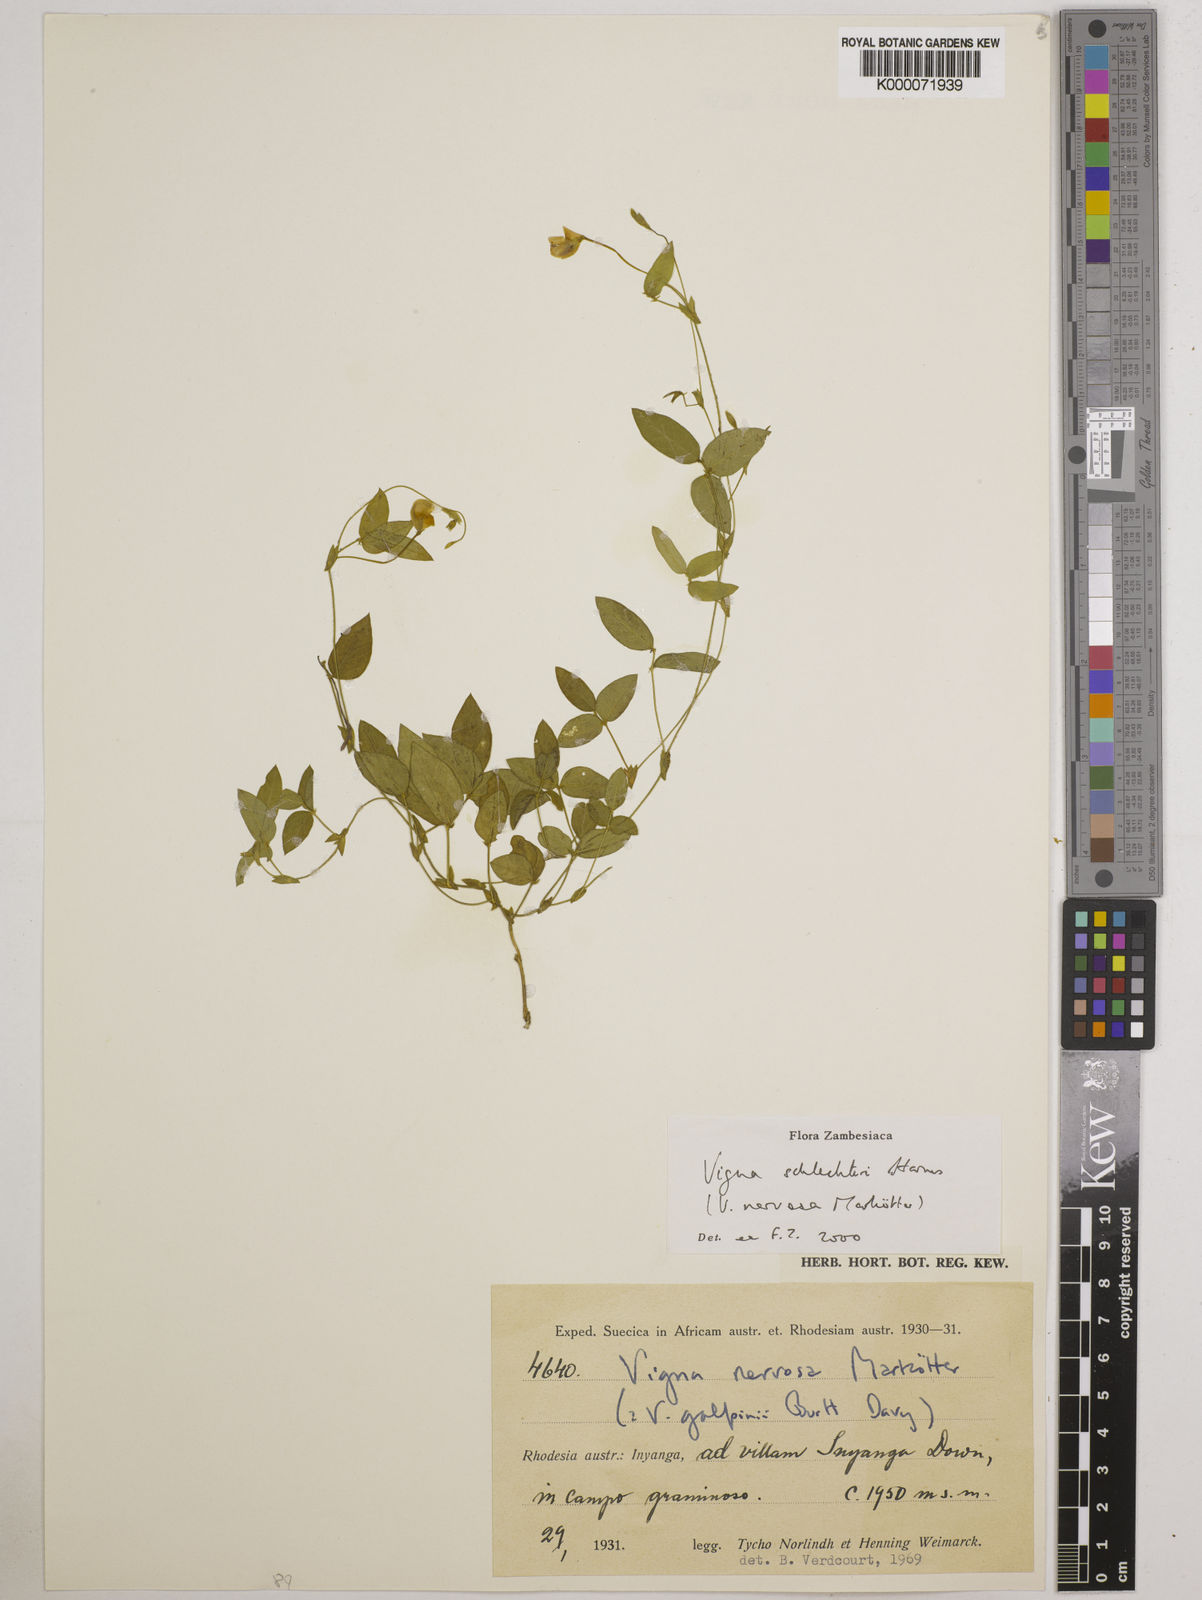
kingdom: Plantae
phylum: Tracheophyta
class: Magnoliopsida
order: Fabales
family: Fabaceae
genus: Vigna
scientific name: Vigna schlechteri
